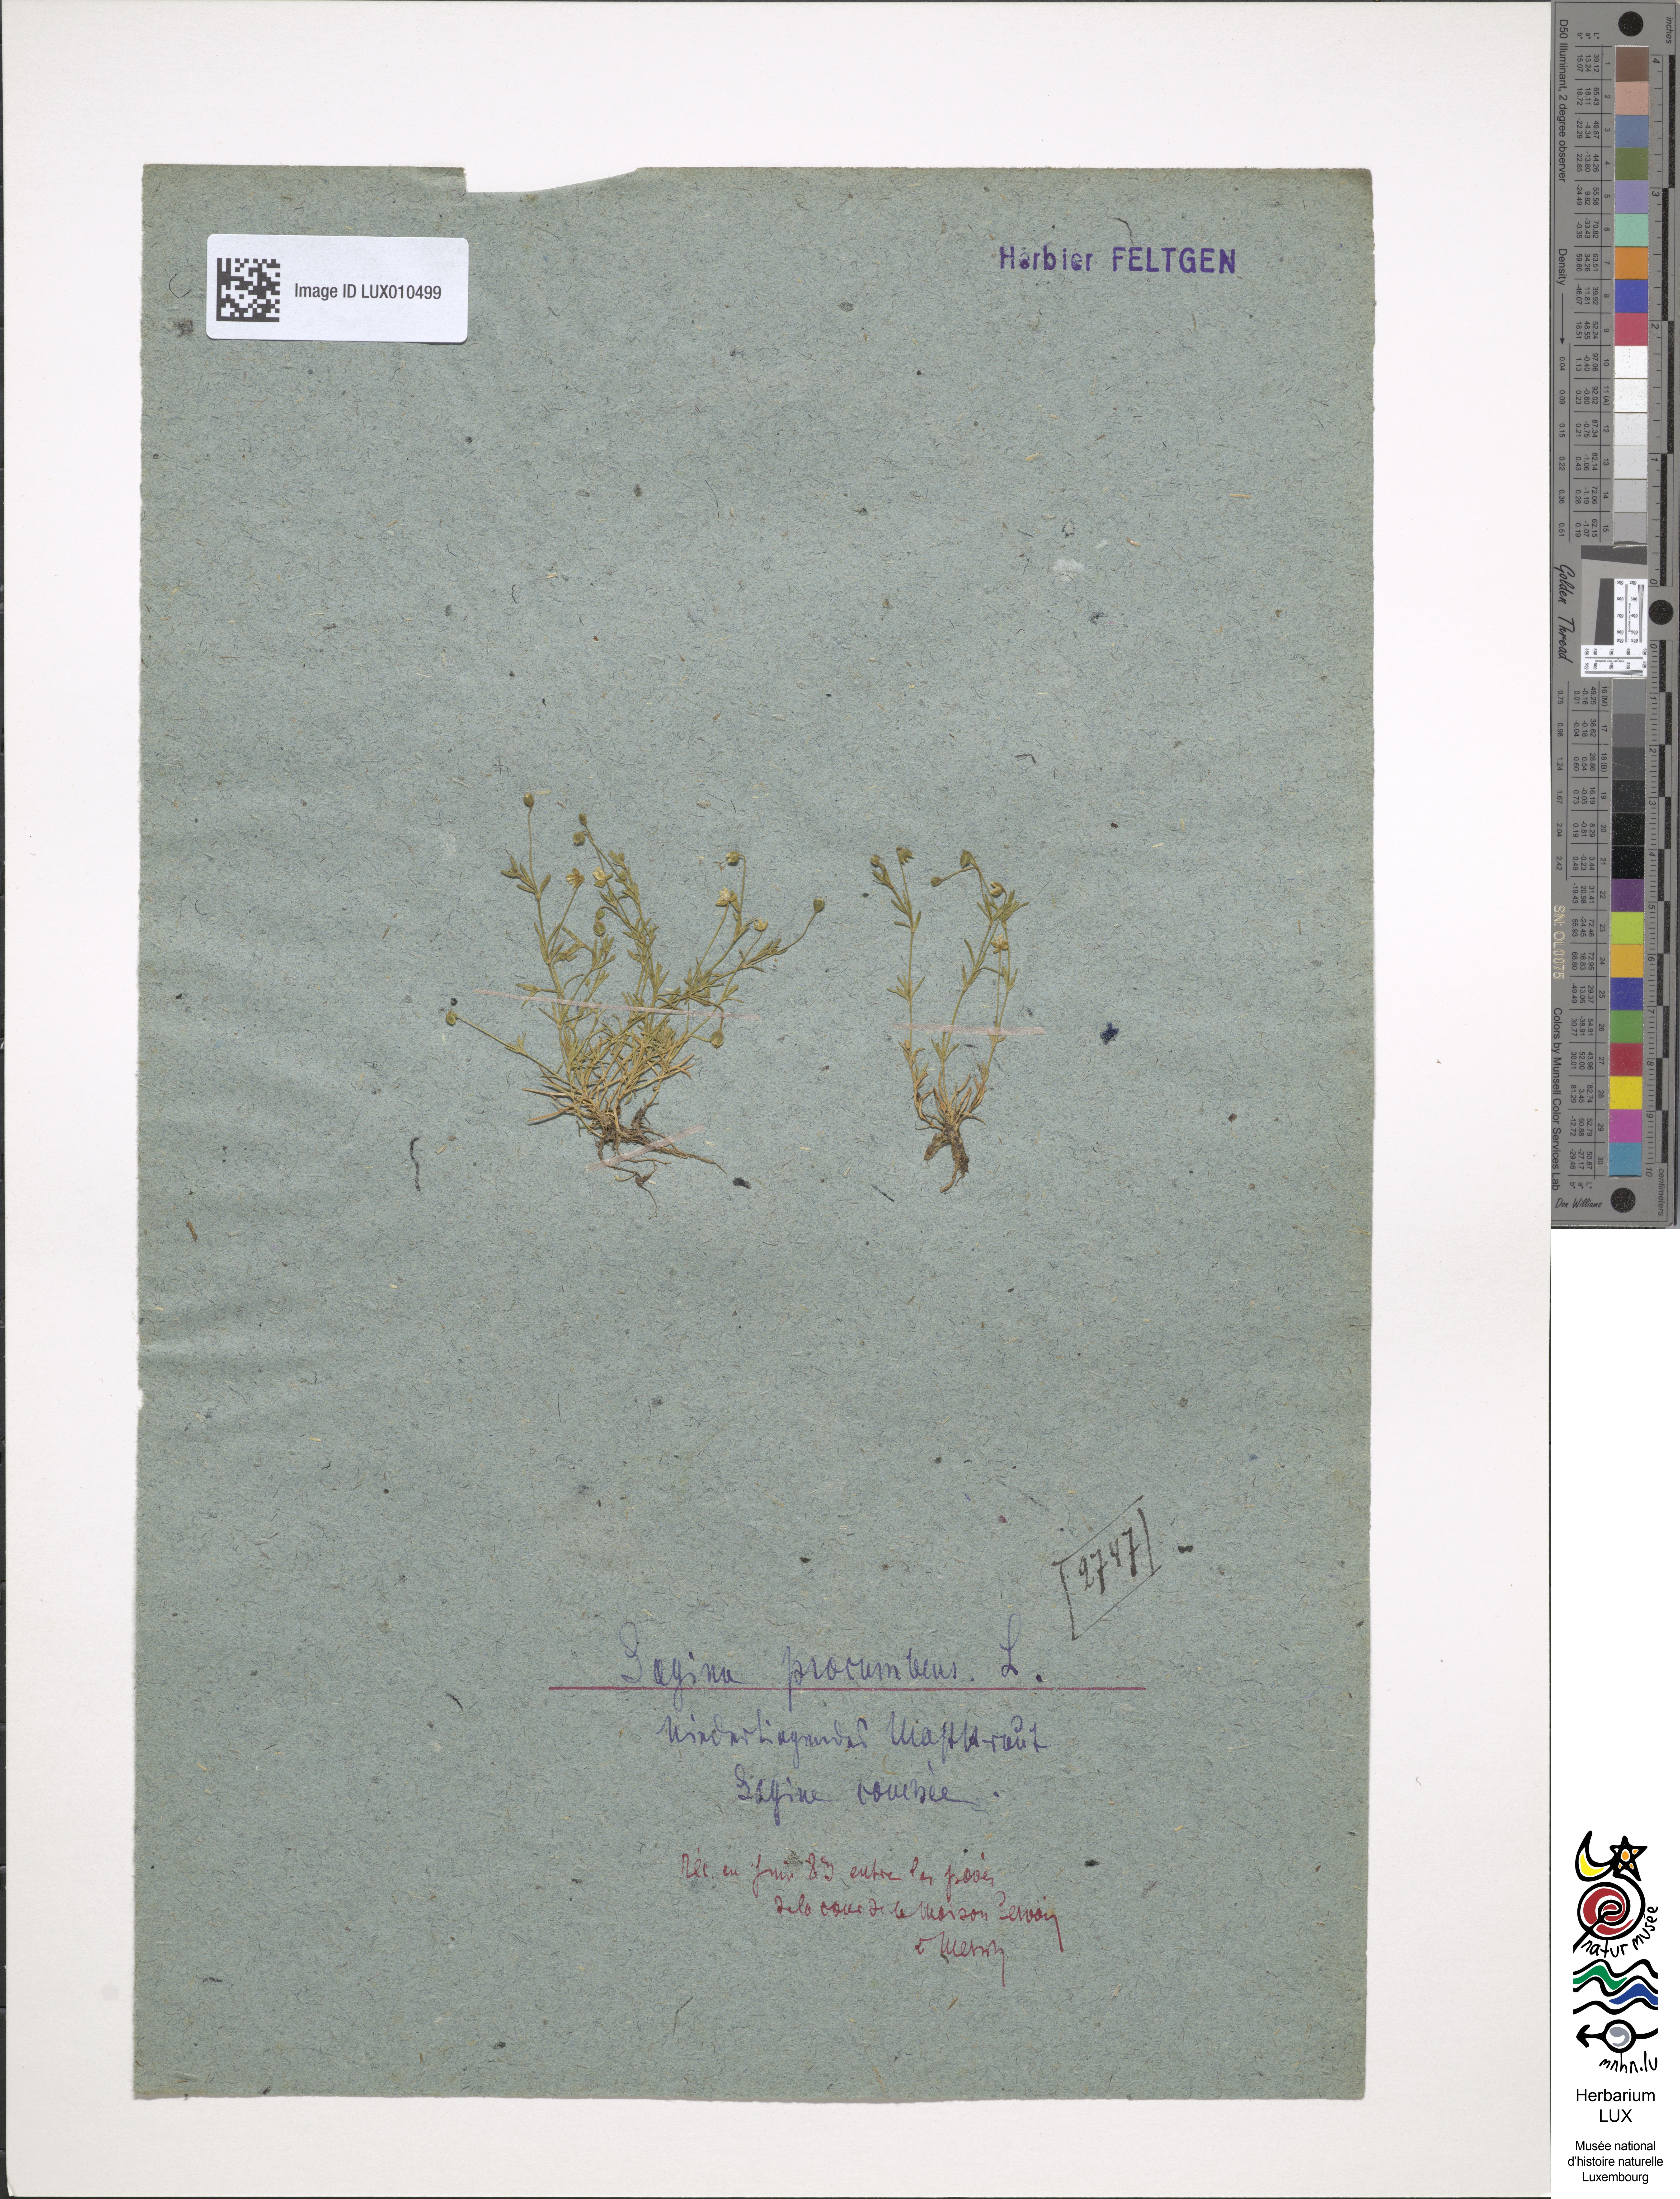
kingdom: Plantae
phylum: Tracheophyta
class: Magnoliopsida
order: Caryophyllales
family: Caryophyllaceae
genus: Sagina
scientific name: Sagina procumbens
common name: Procumbent pearlwort
